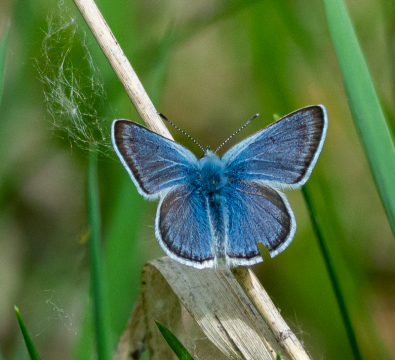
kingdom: Animalia
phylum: Arthropoda
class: Insecta
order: Lepidoptera
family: Lycaenidae
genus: Plebejus
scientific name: Plebejus saepiolus
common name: Greenish Blue
